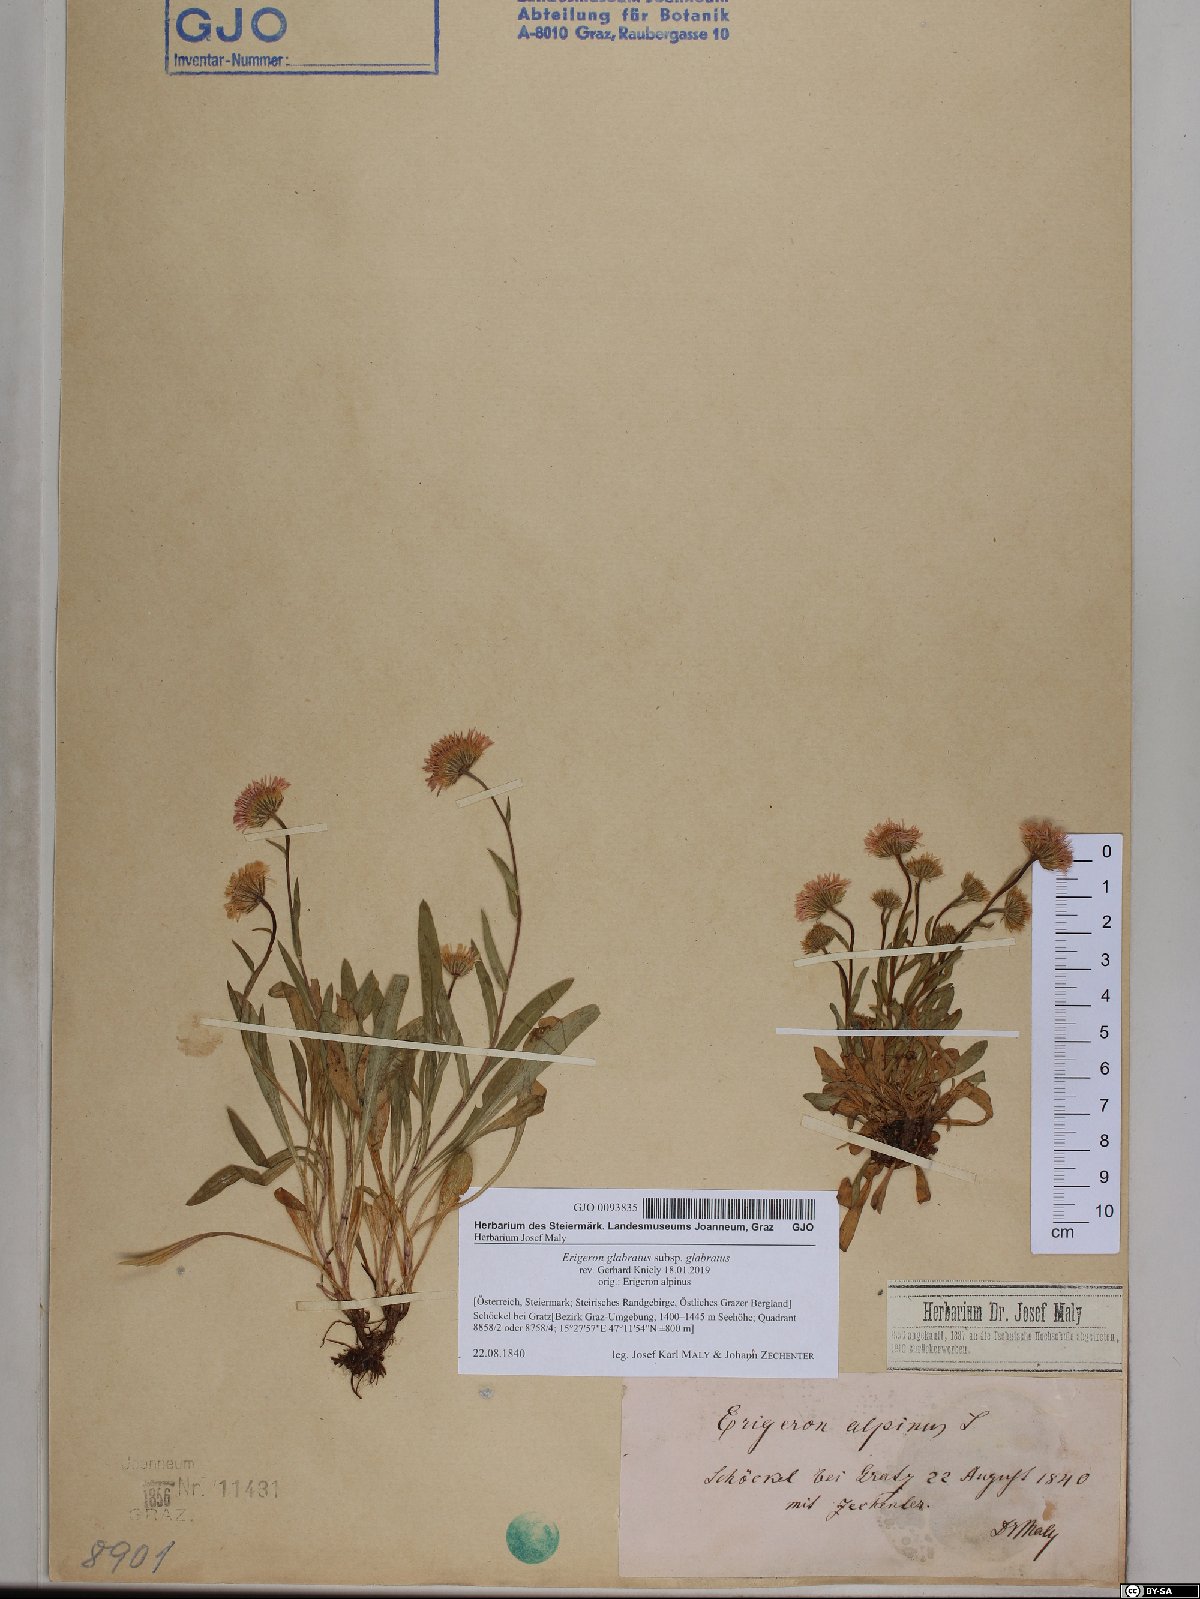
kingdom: Plantae
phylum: Tracheophyta
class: Magnoliopsida
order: Asterales
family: Asteraceae
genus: Erigeron
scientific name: Erigeron glabratus
